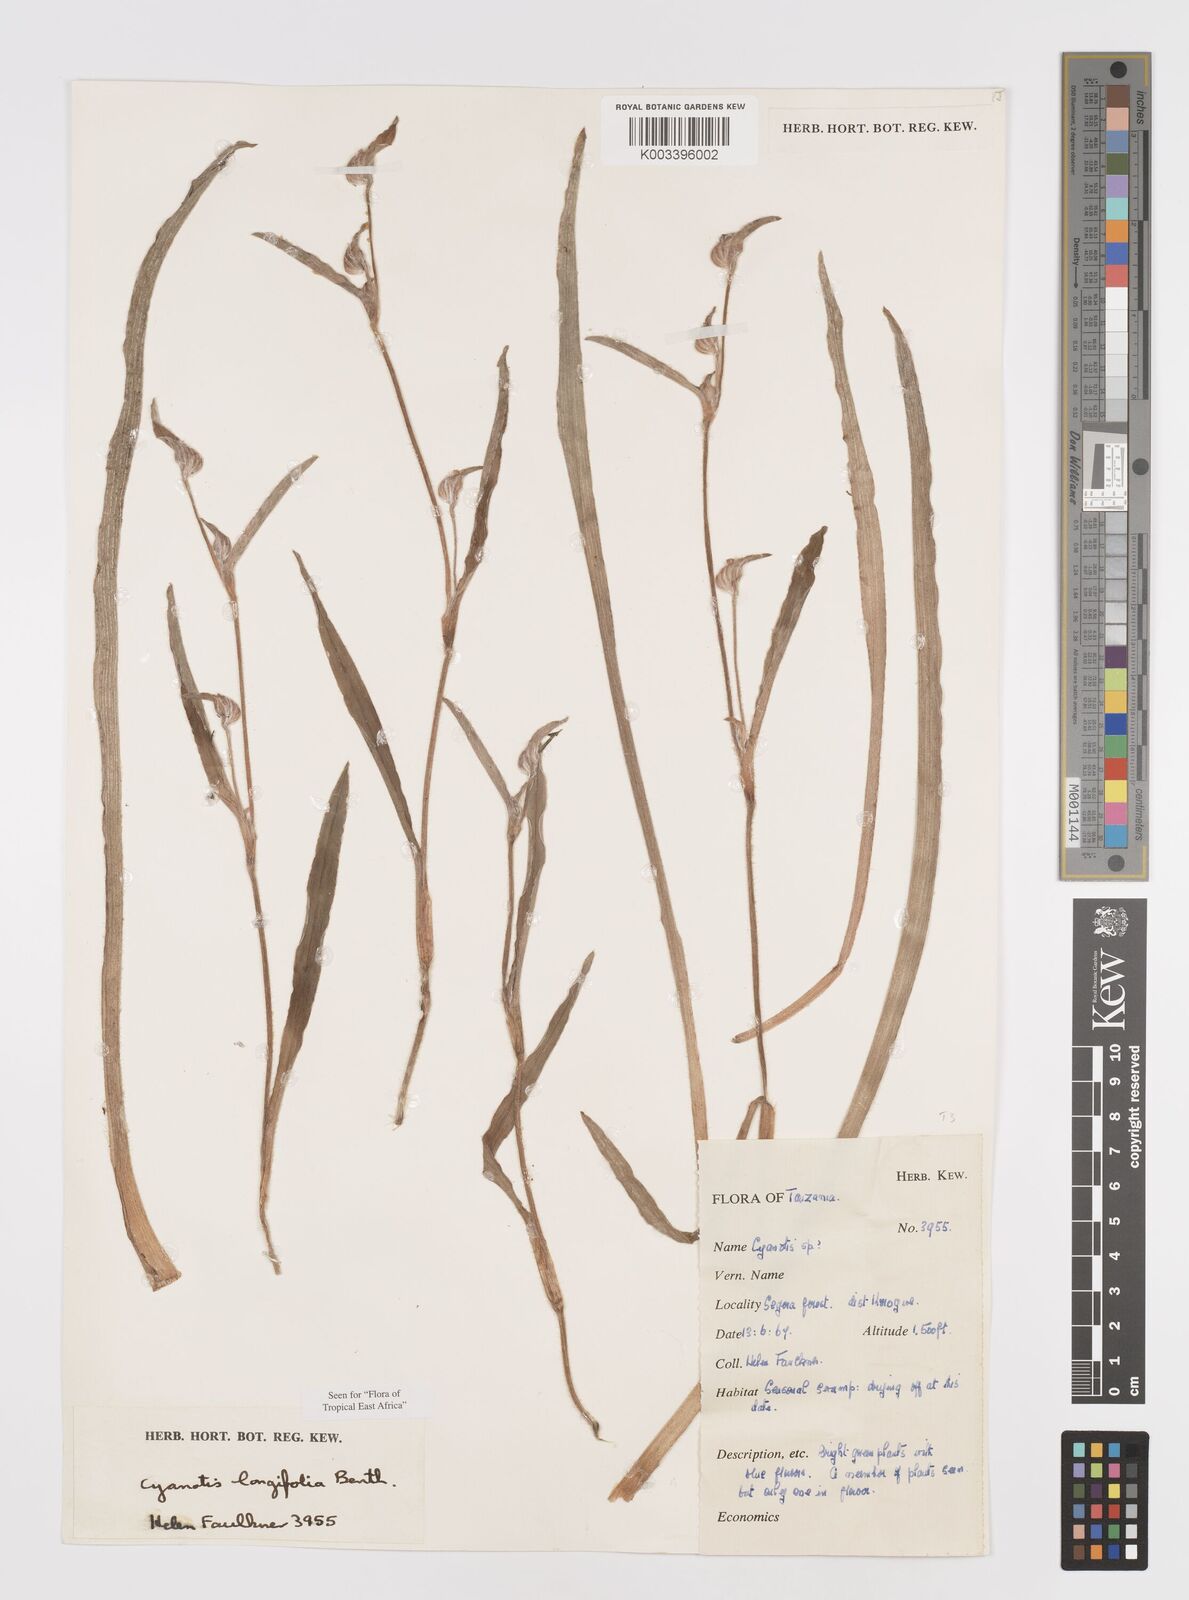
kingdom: Plantae
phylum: Tracheophyta
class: Liliopsida
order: Commelinales
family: Commelinaceae
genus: Cyanotis
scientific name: Cyanotis longifolia
